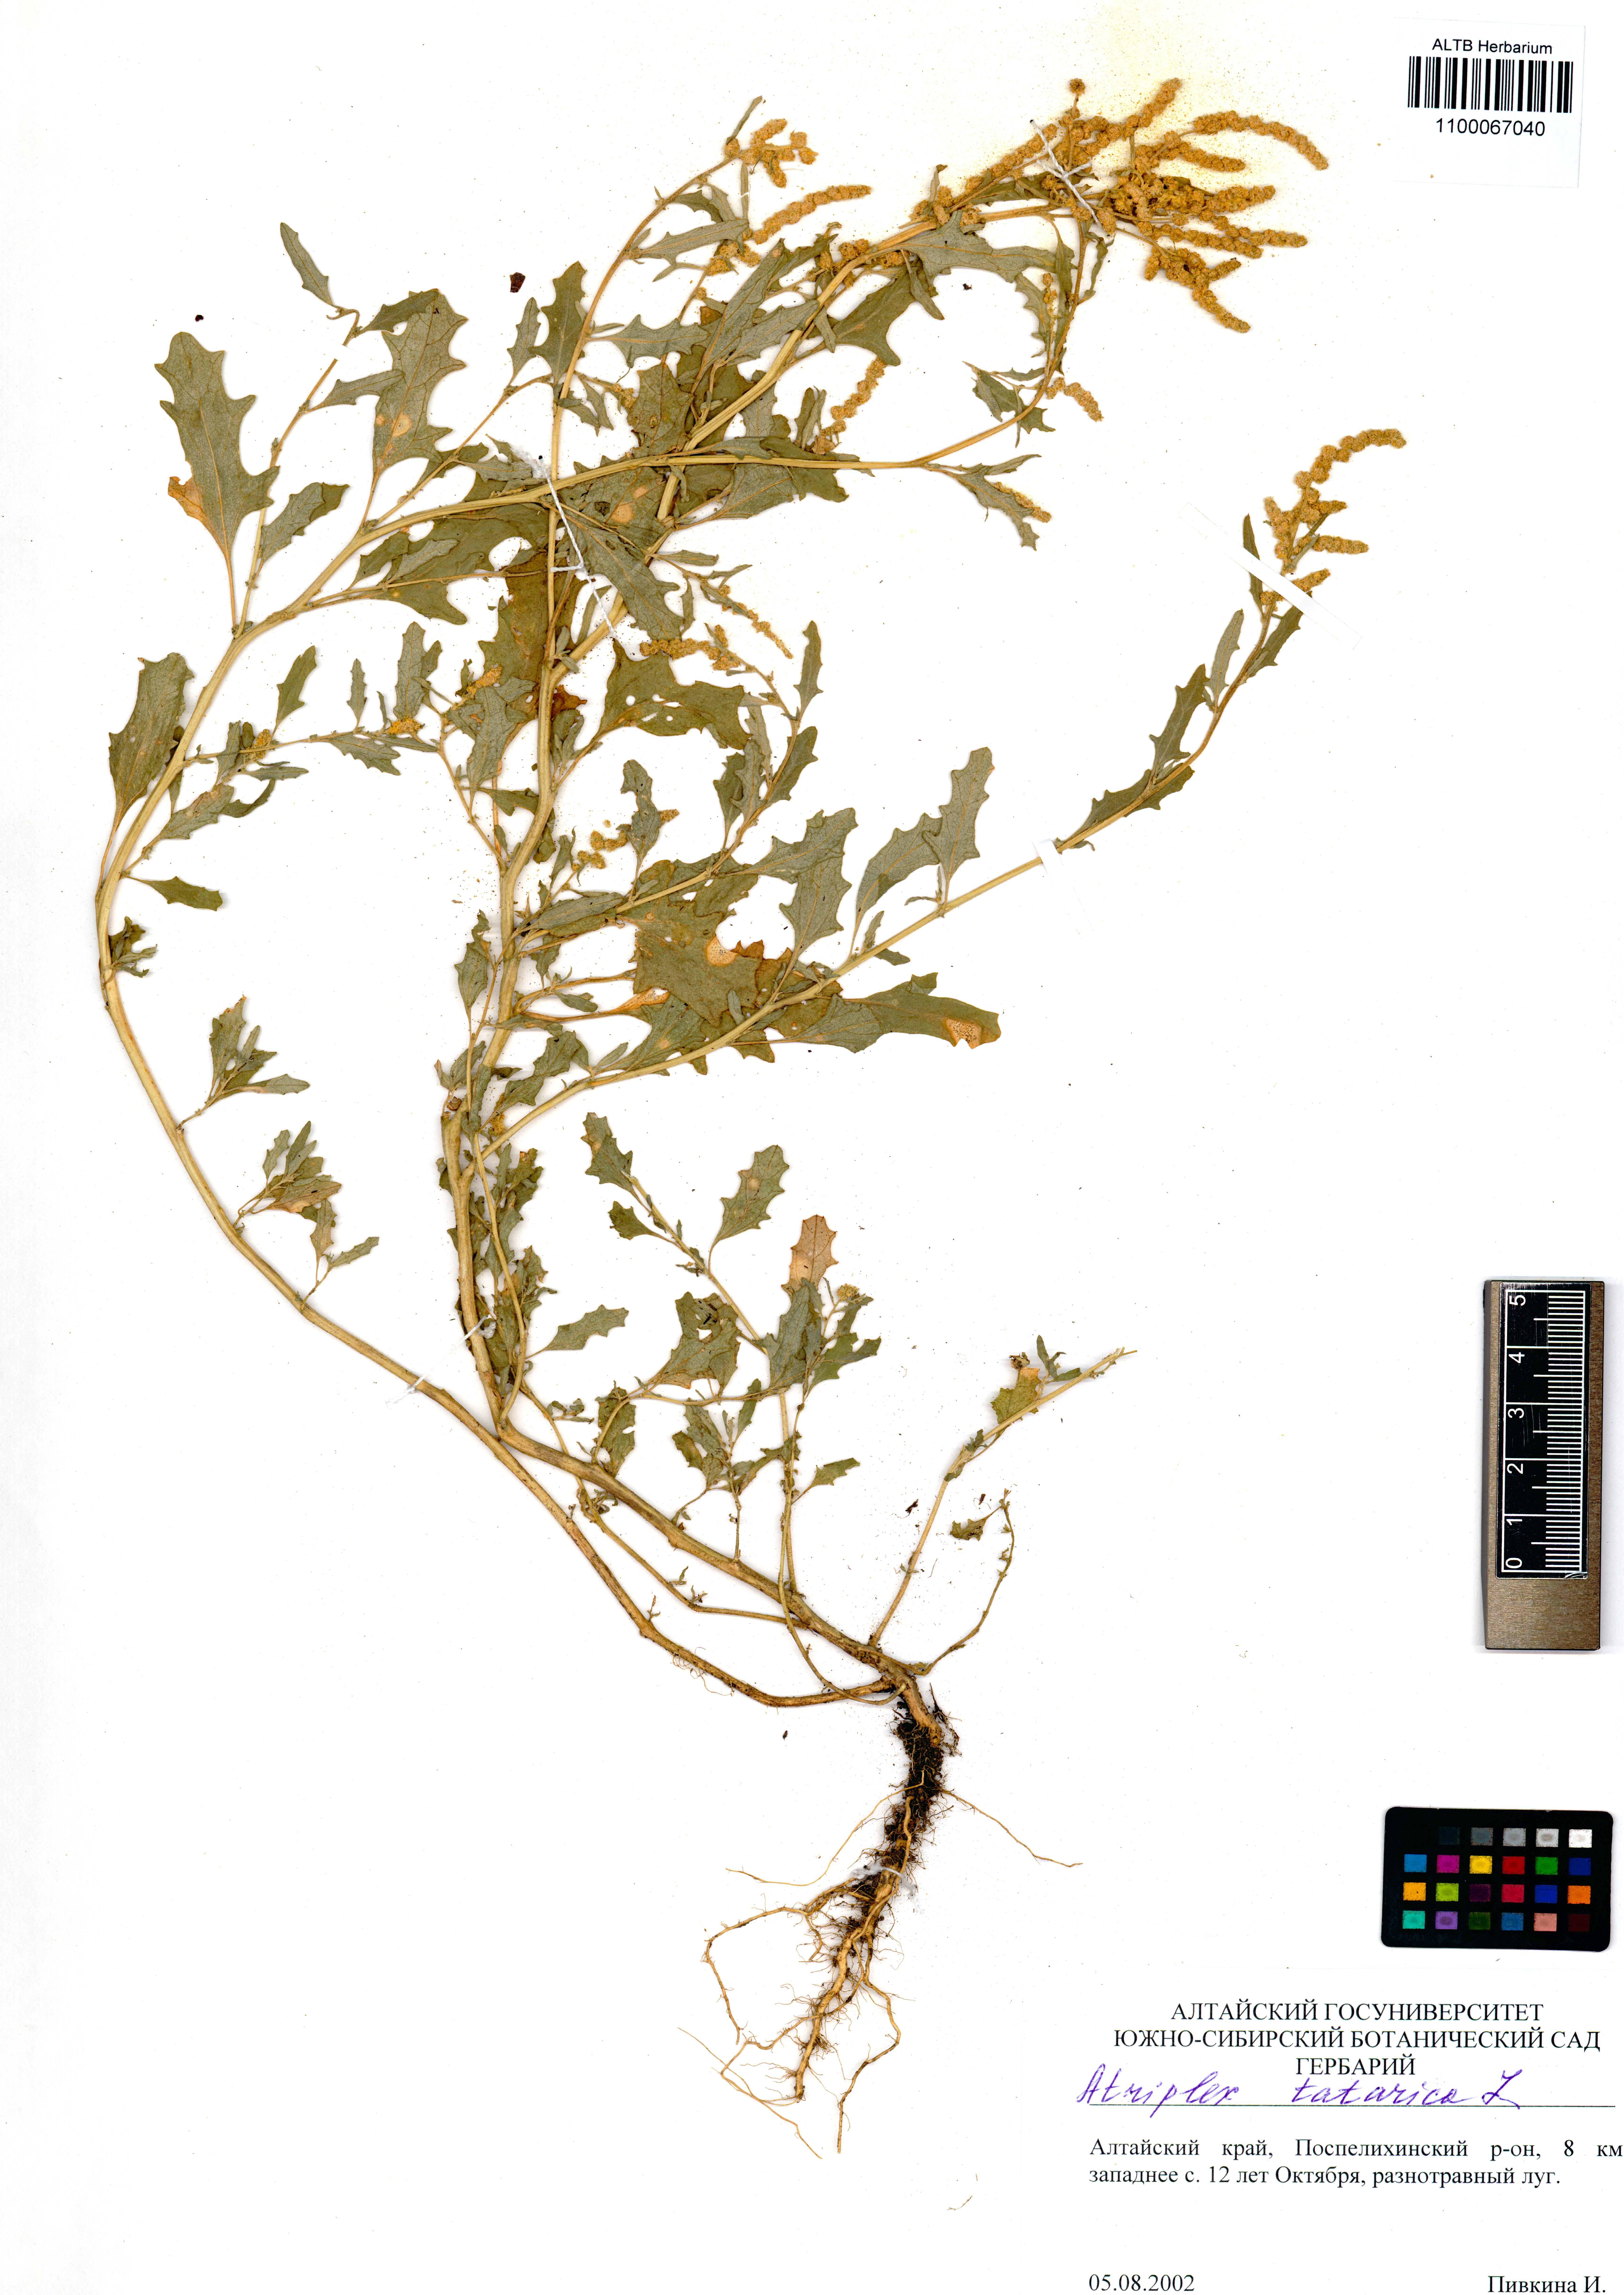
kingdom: Plantae
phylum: Tracheophyta
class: Magnoliopsida
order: Caryophyllales
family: Amaranthaceae
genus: Atriplex
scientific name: Atriplex tatarica
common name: Tatarian orache
